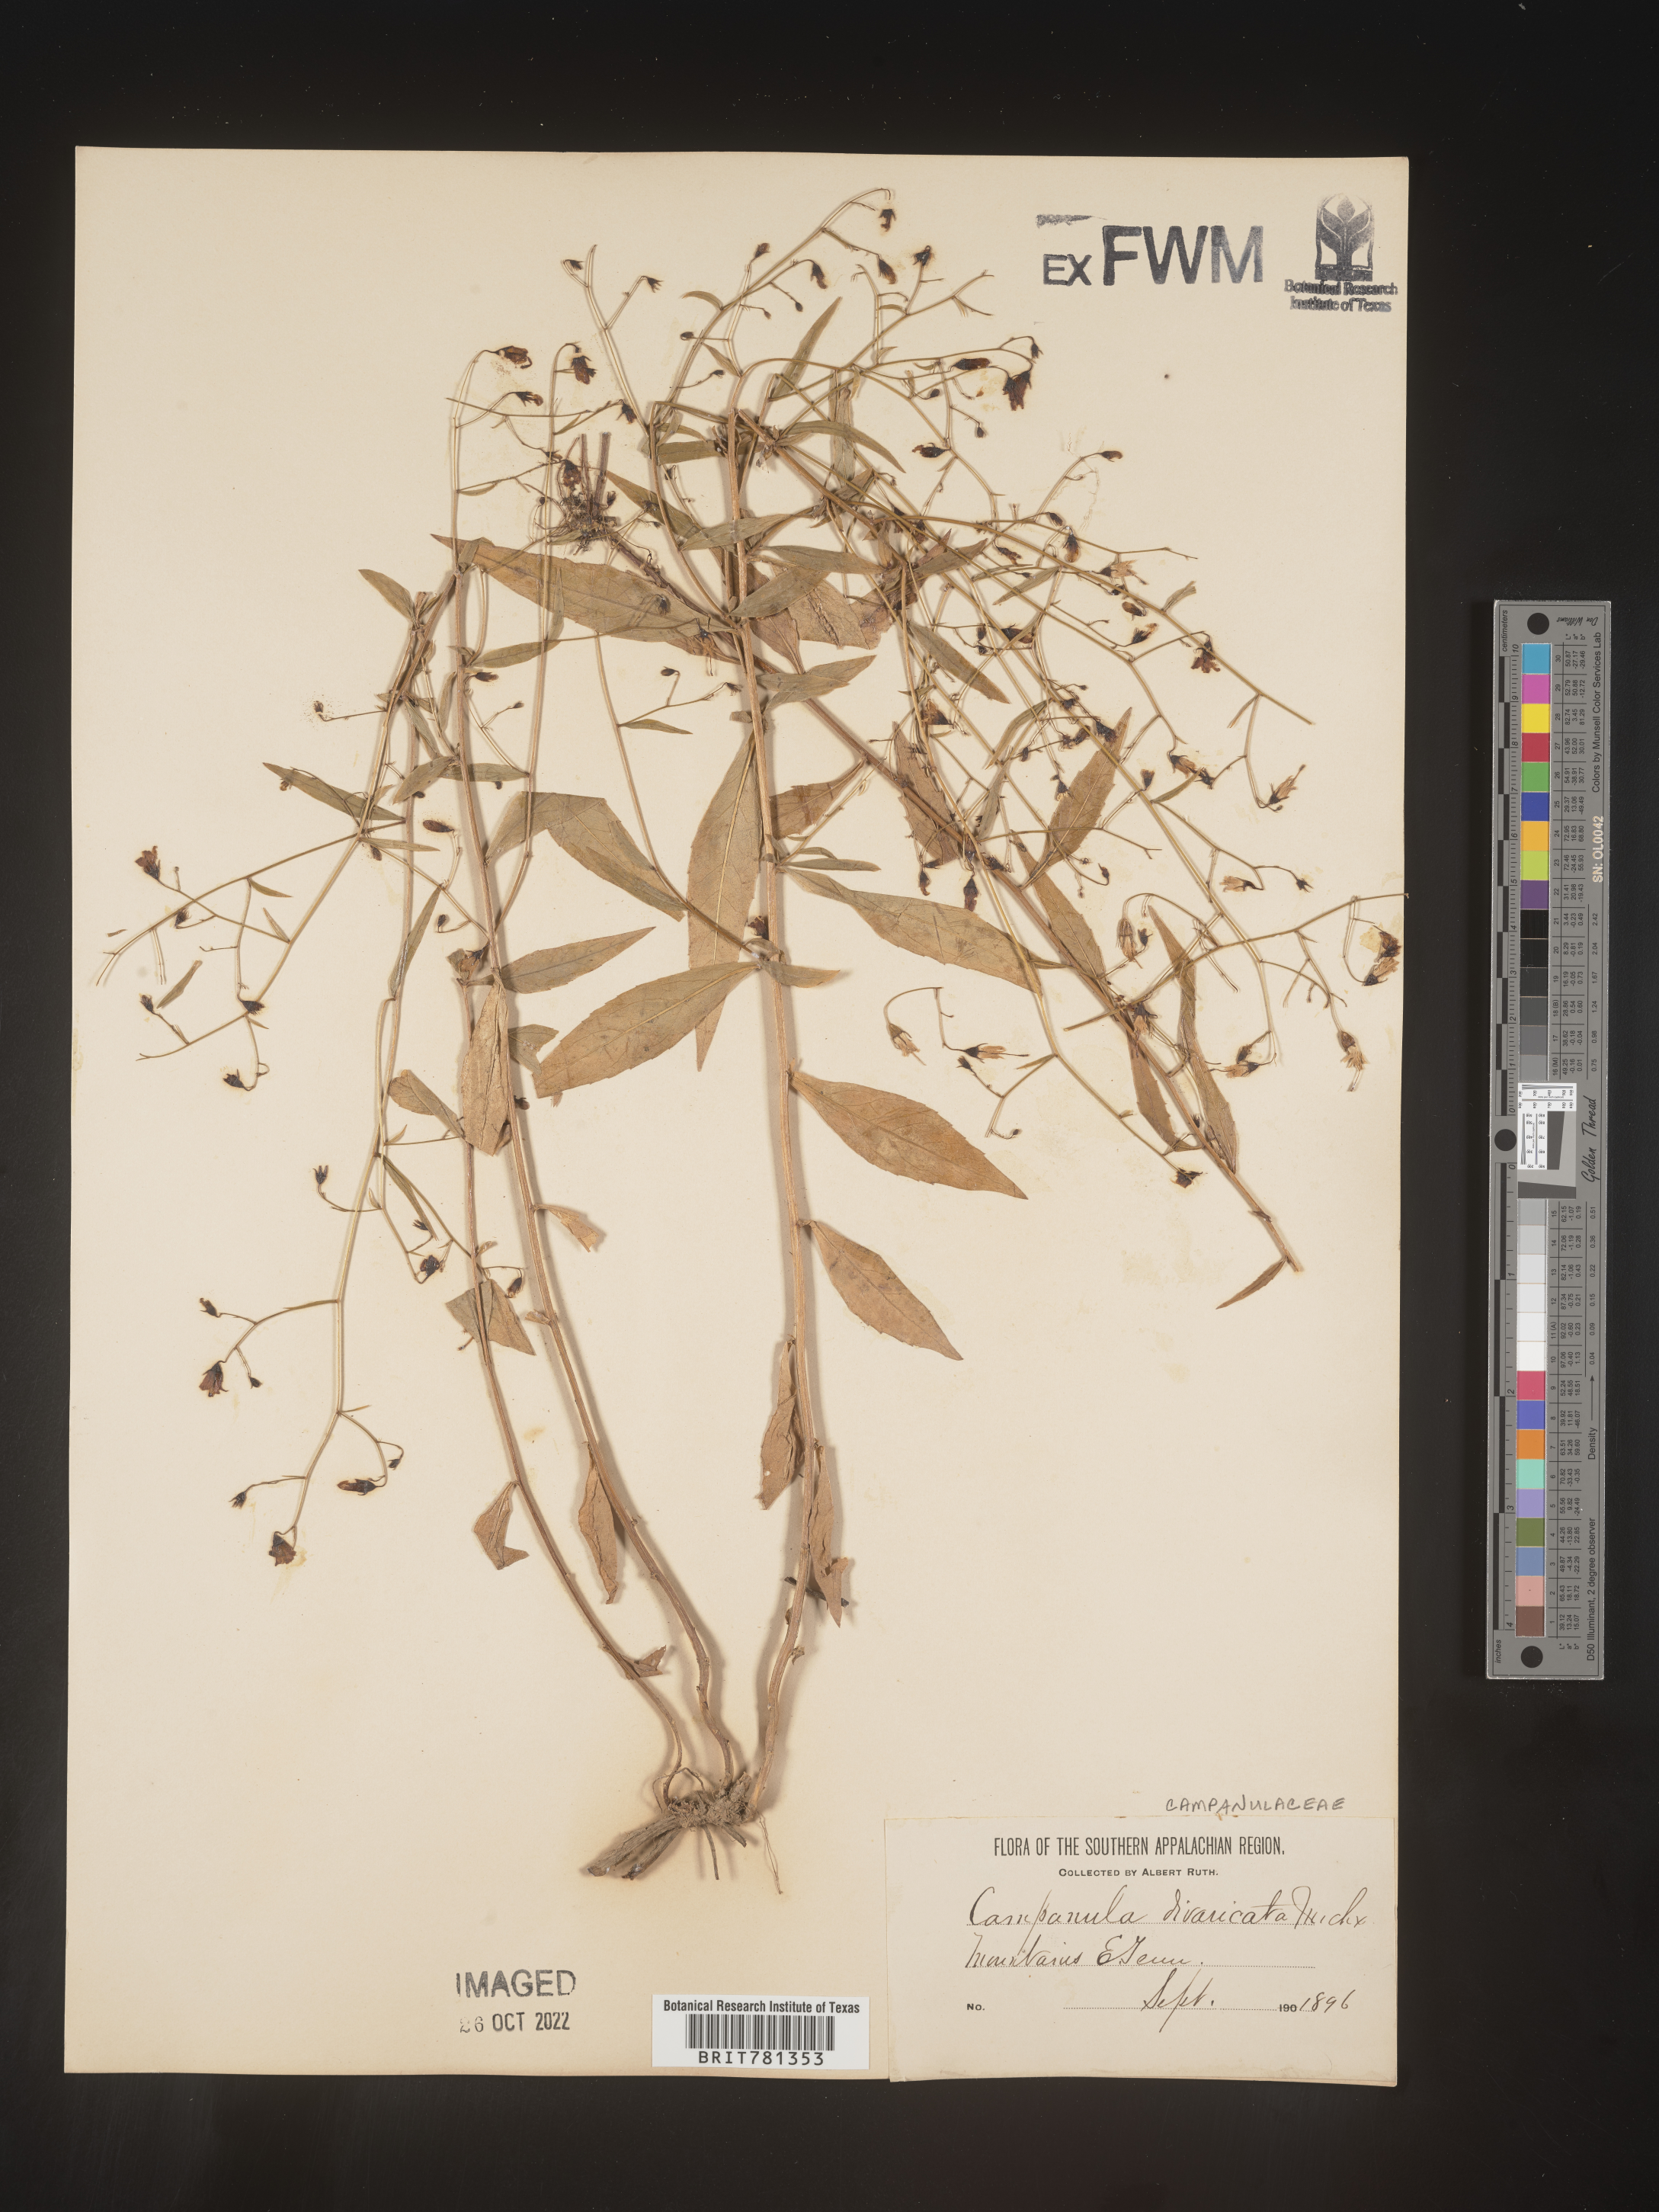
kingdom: Plantae
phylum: Tracheophyta
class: Magnoliopsida
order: Asterales
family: Campanulaceae
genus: Campanula
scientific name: Campanula divaricata
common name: Appalachian bellflower
